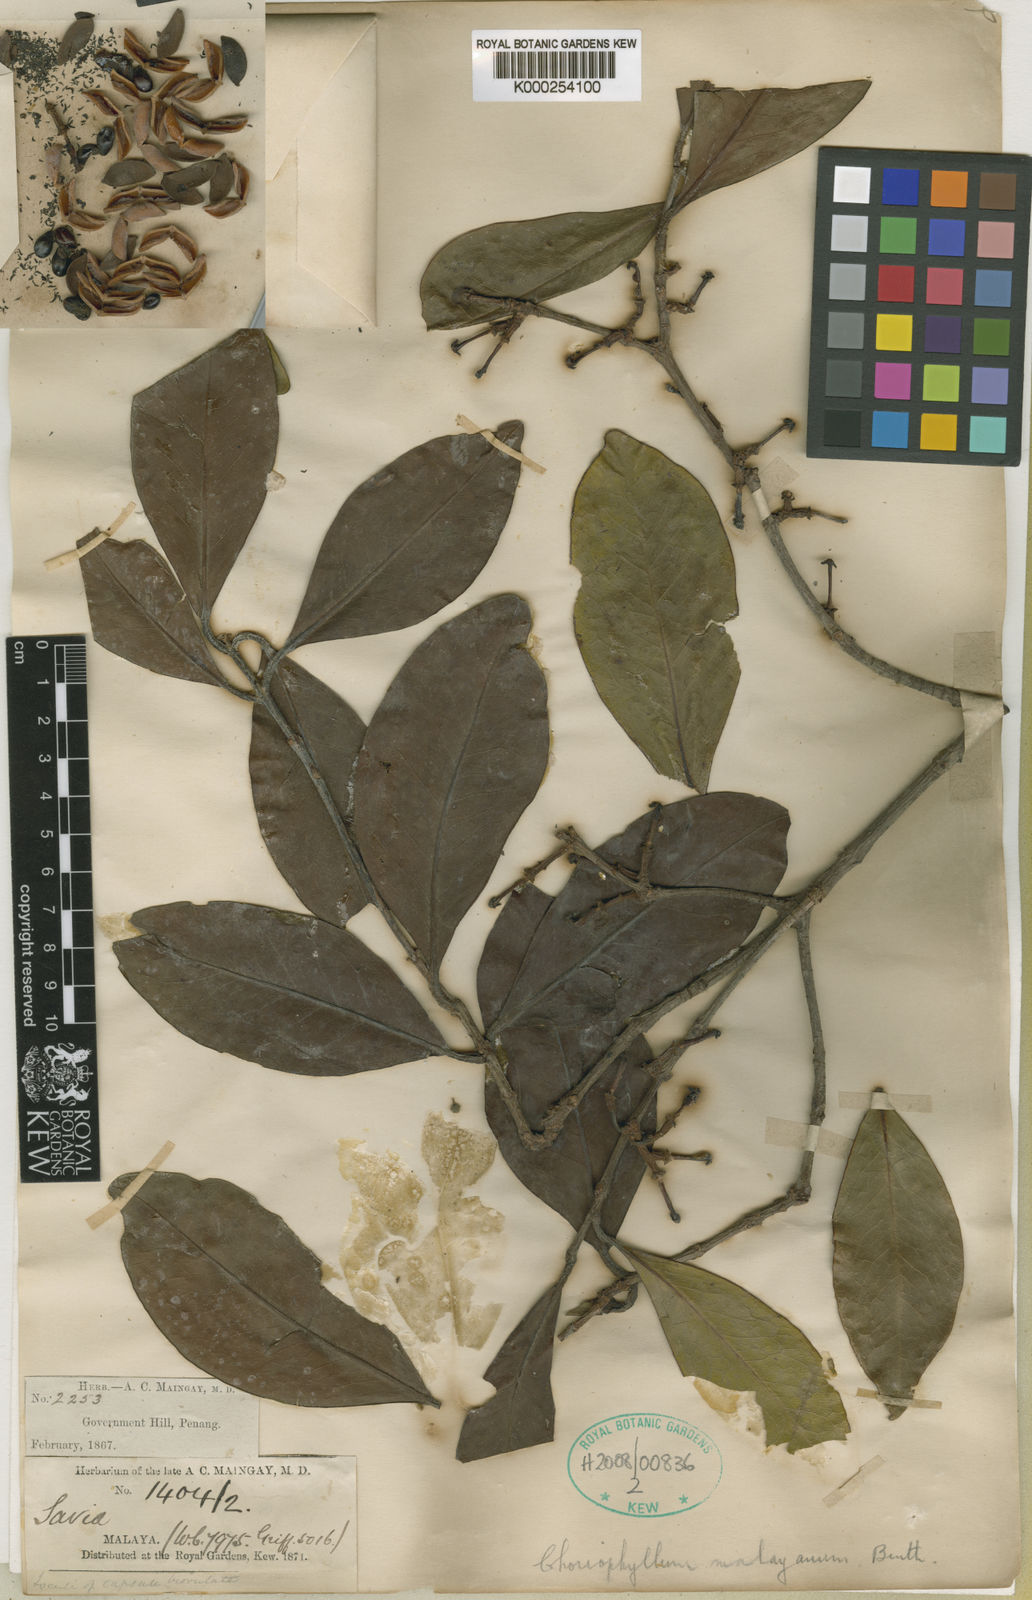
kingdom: Plantae
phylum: Tracheophyta
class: Magnoliopsida
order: Malpighiales
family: Picrodendraceae
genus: Austrobuxus
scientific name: Austrobuxus nitidus
